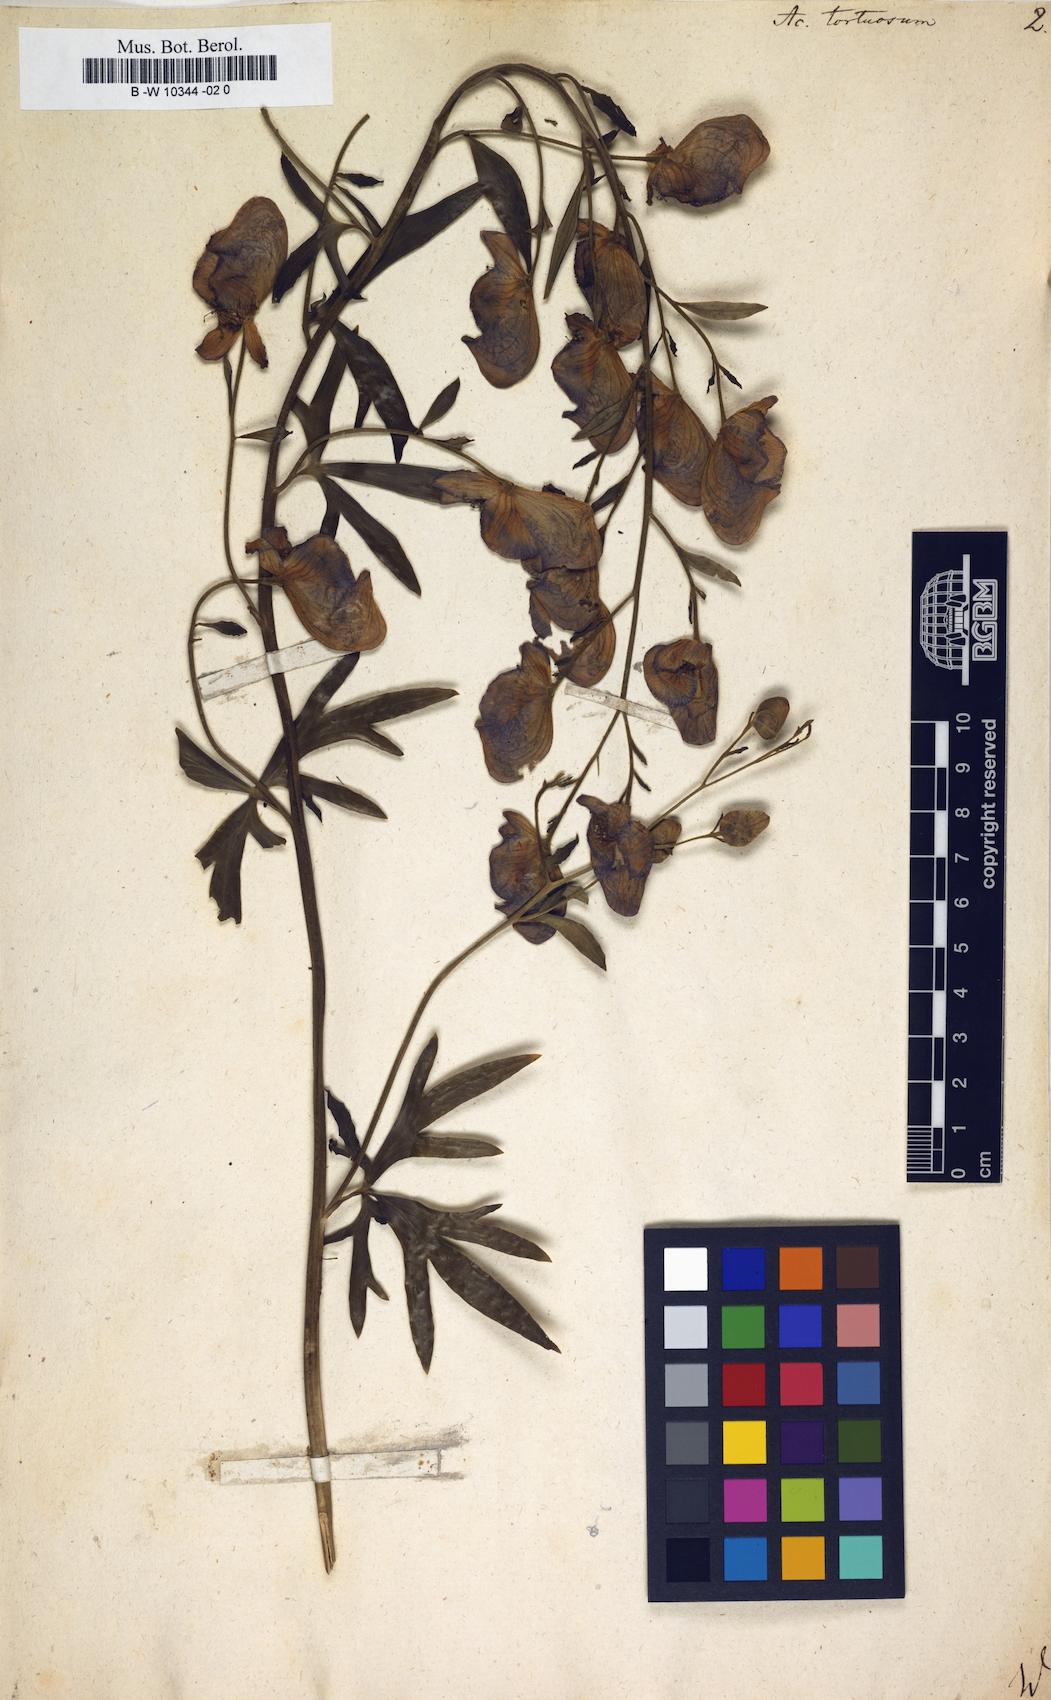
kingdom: Plantae
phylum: Tracheophyta
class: Magnoliopsida
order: Ranunculales
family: Ranunculaceae
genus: Aconitum
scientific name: Aconitum volubile
